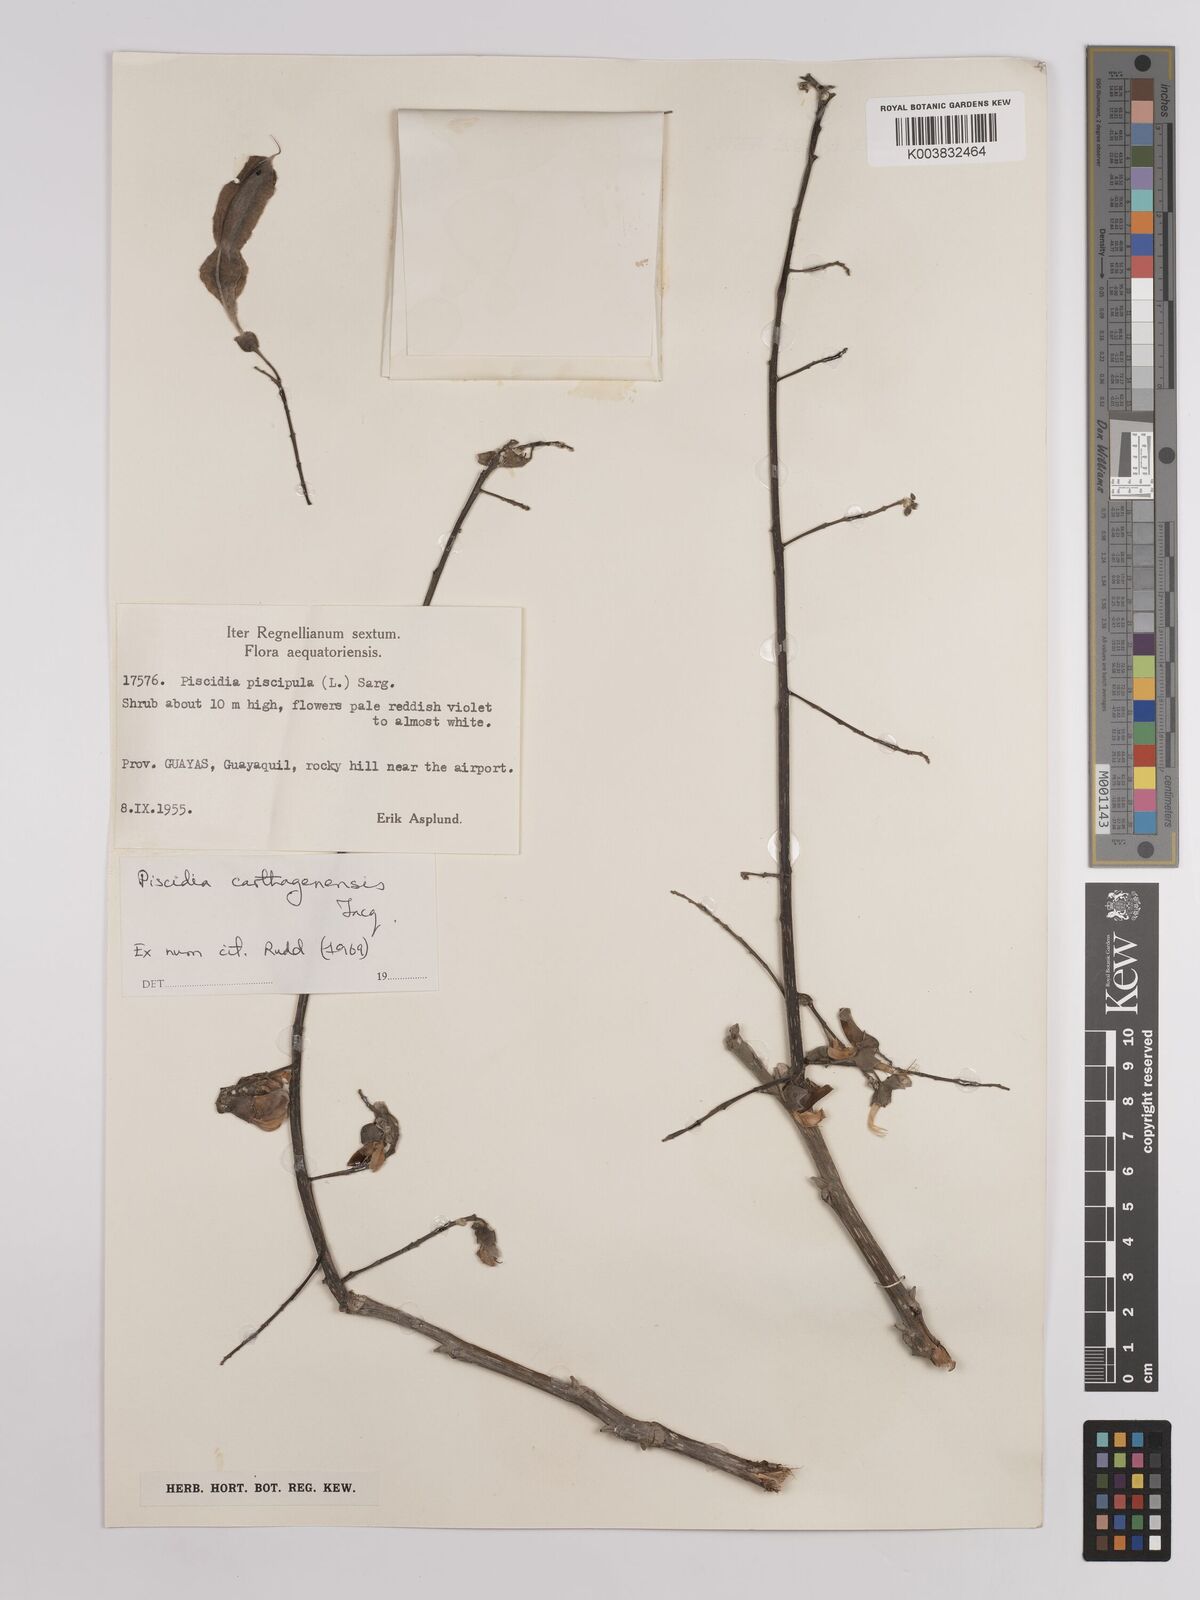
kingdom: Plantae
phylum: Tracheophyta
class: Magnoliopsida
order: Fabales
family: Fabaceae
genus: Piscidia
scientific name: Piscidia carthagenensis
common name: Stinkwood
